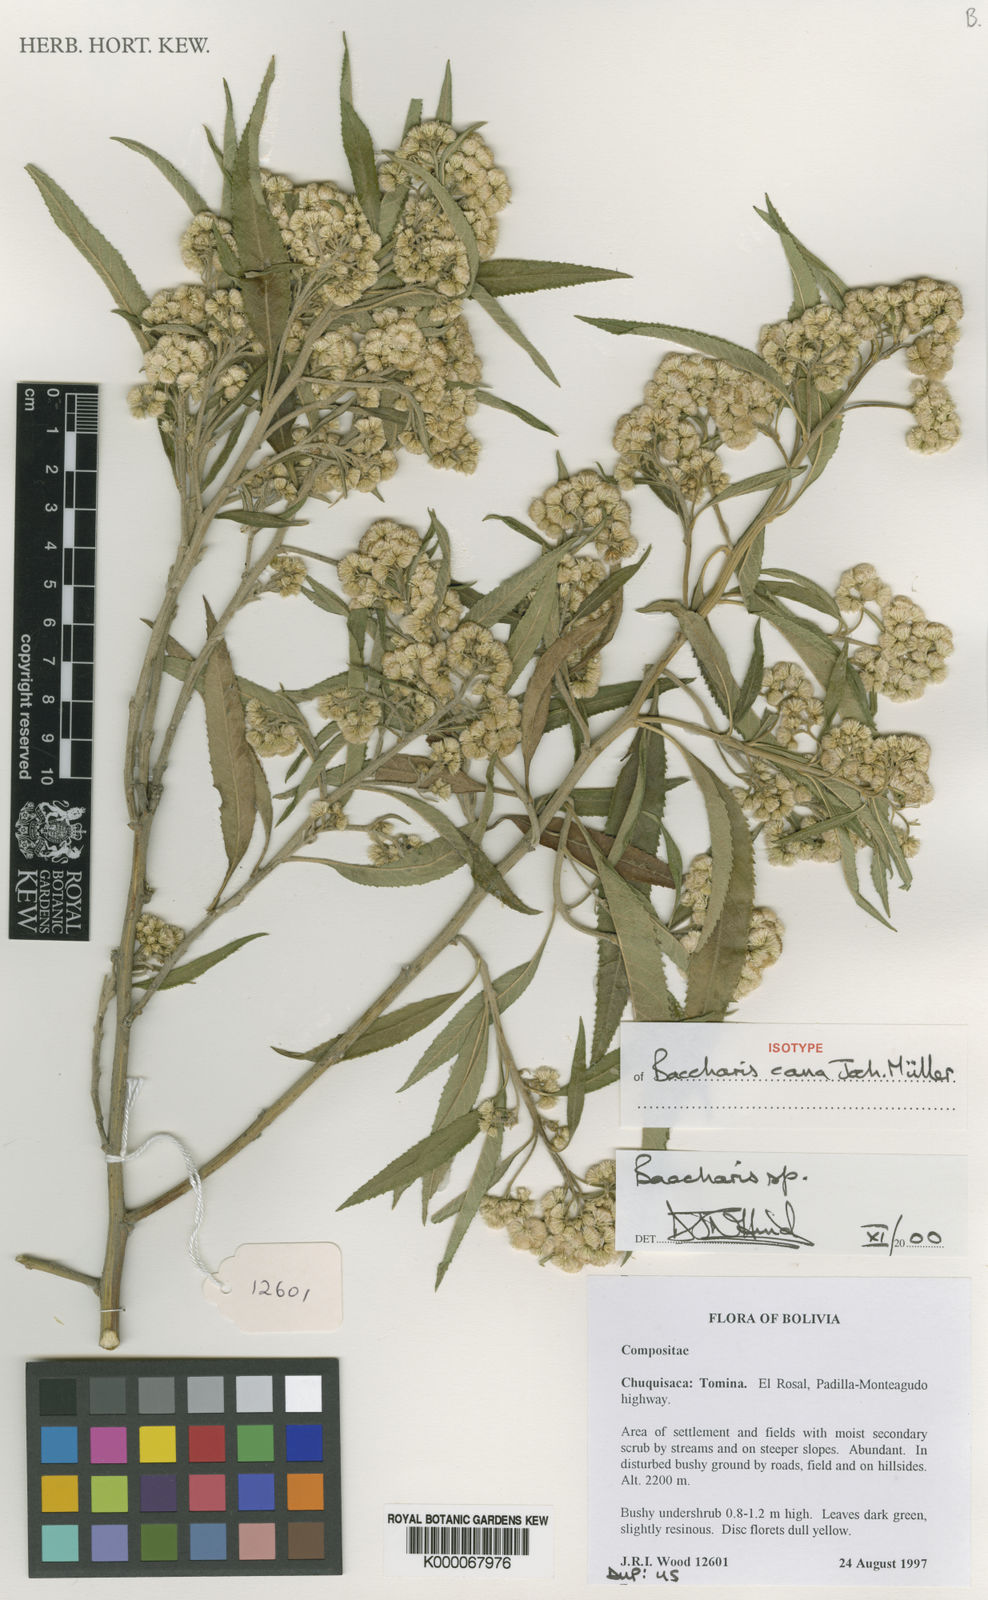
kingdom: Plantae
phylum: Tracheophyta
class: Magnoliopsida
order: Asterales
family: Asteraceae
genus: Baccharis
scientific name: Baccharis
